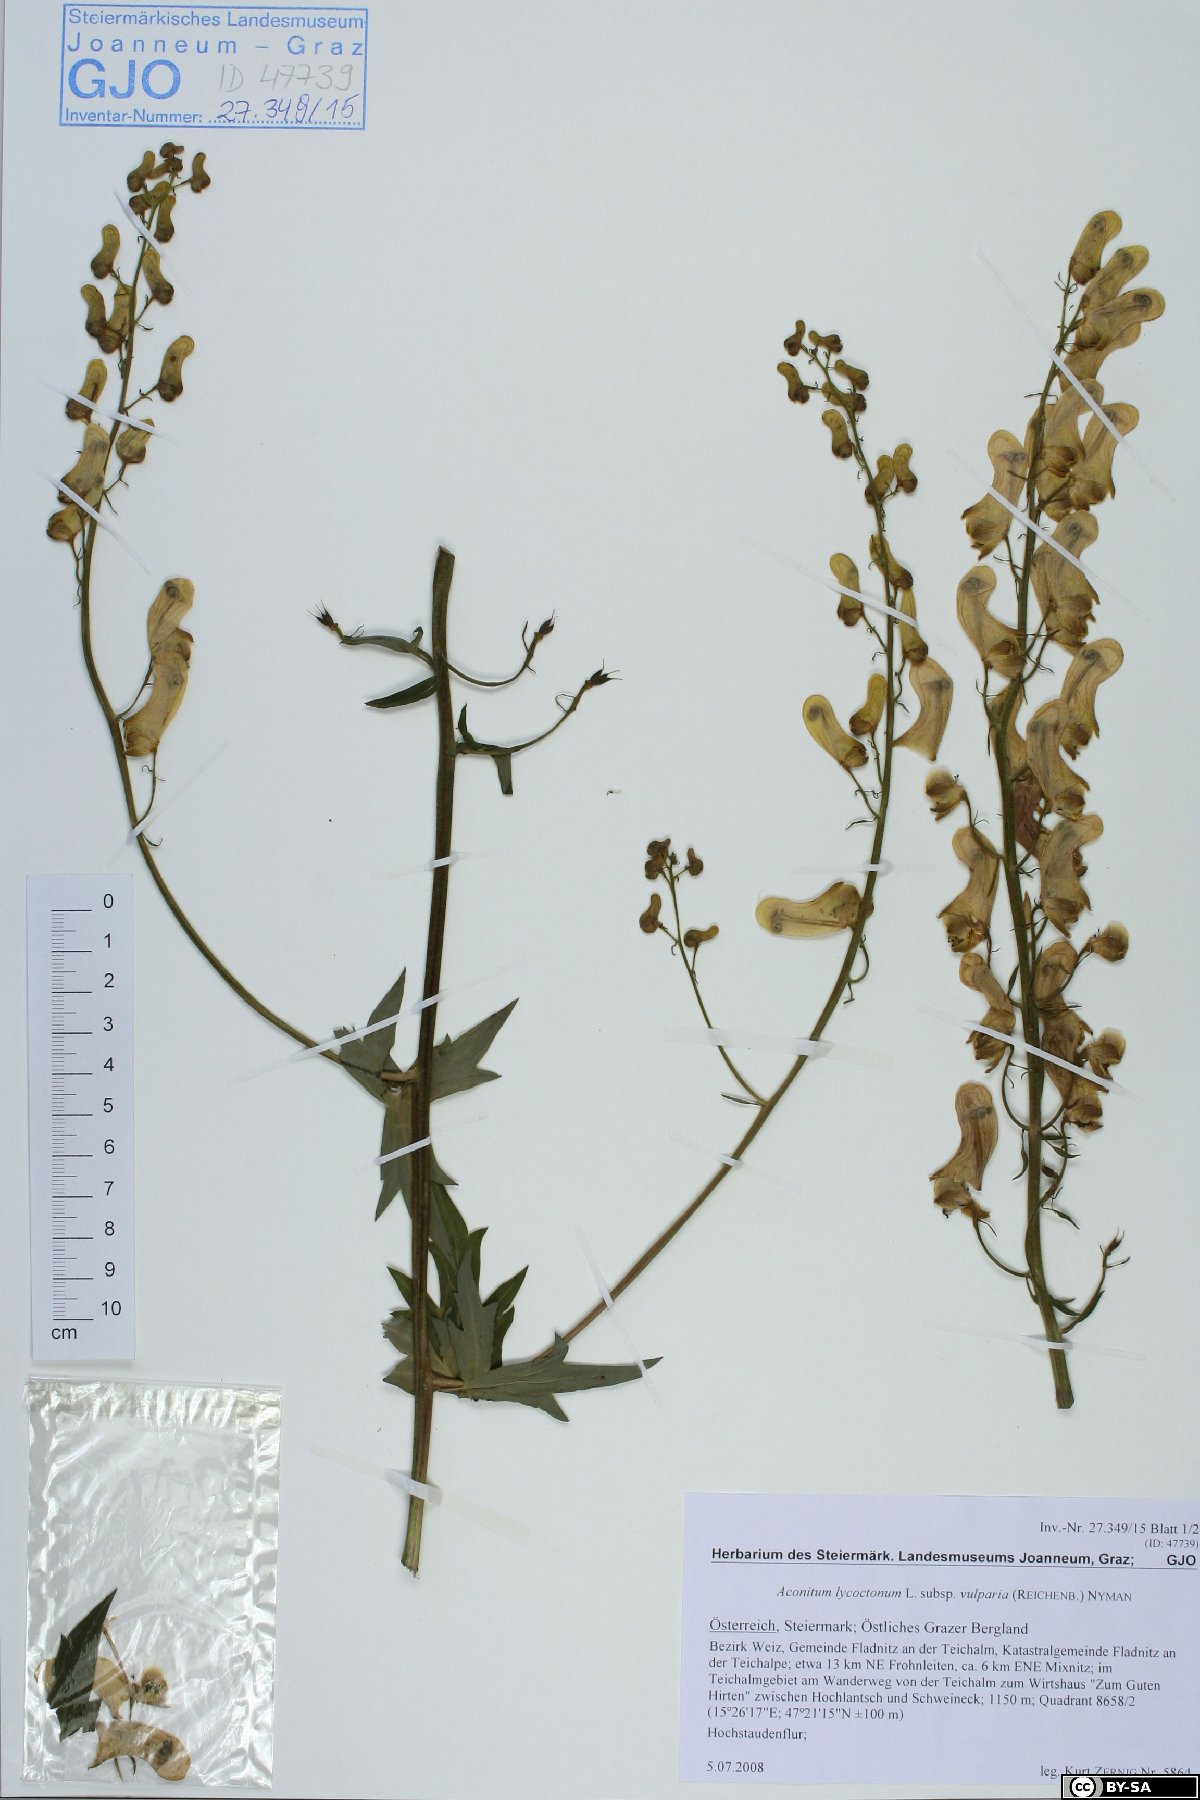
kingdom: Plantae
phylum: Tracheophyta
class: Magnoliopsida
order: Ranunculales
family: Ranunculaceae
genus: Aconitum
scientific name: Aconitum lycoctonum
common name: Wolf's-bane
